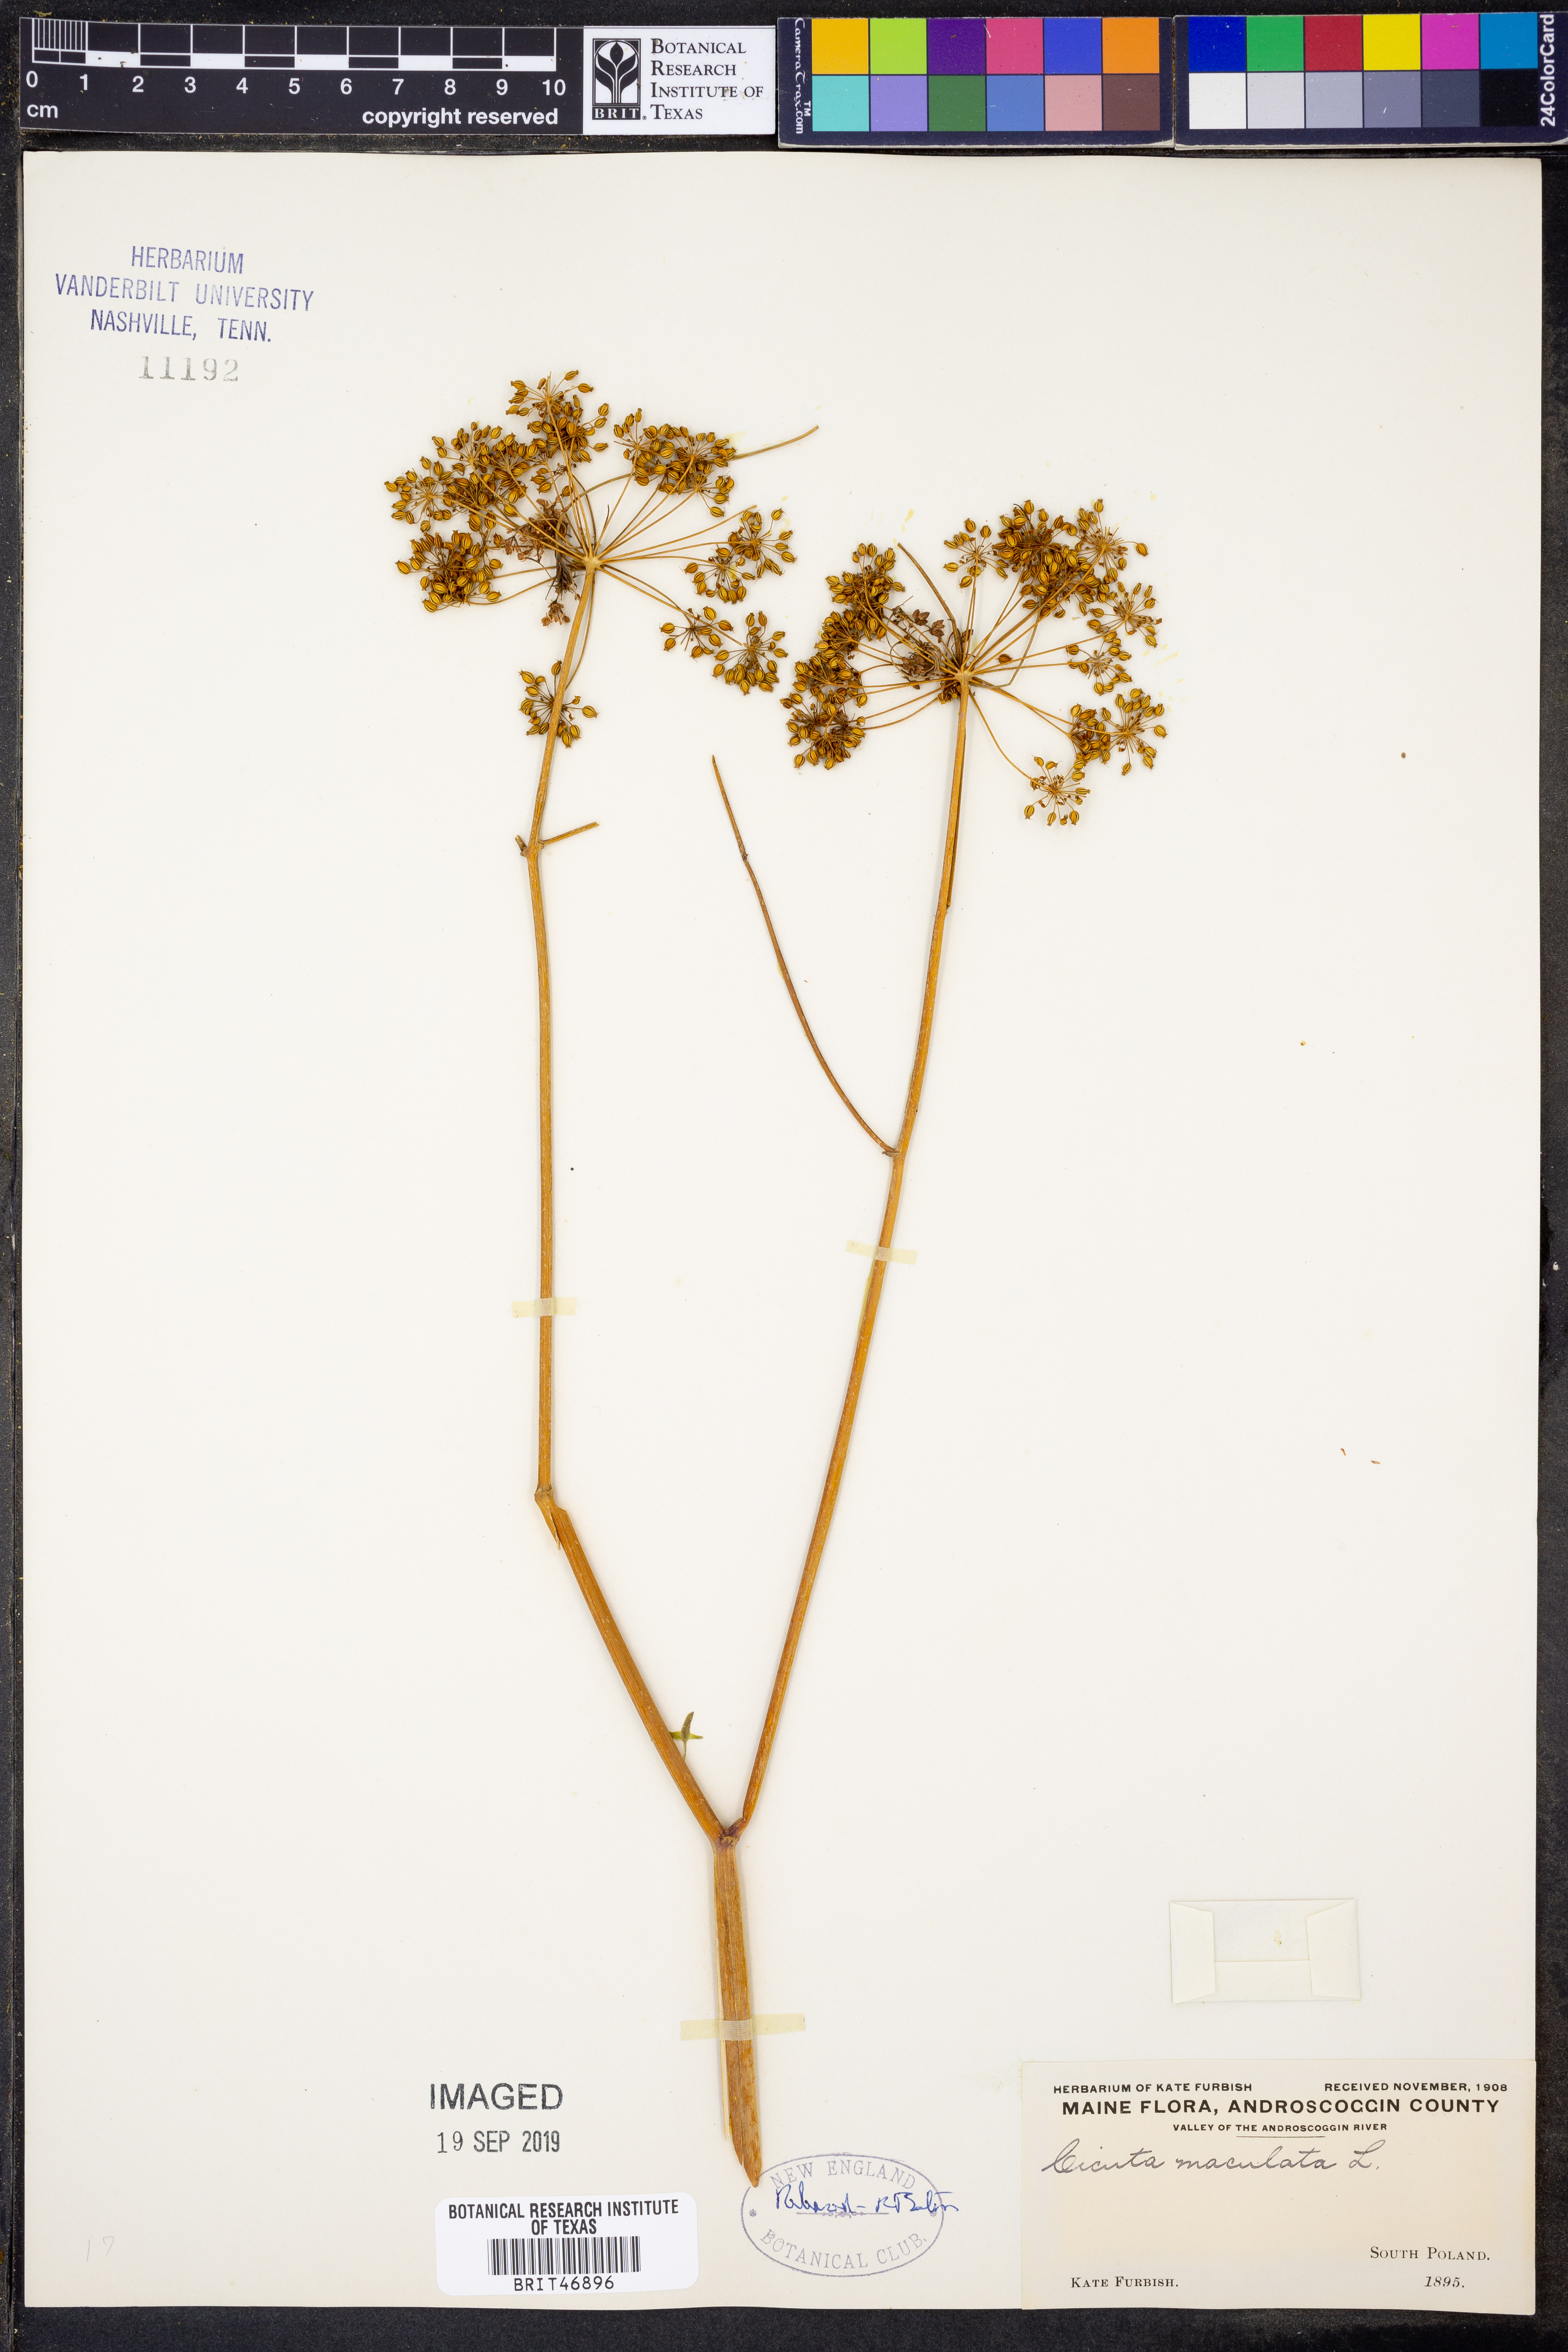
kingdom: Plantae
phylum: Tracheophyta
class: Magnoliopsida
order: Apiales
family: Apiaceae
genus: Cicuta
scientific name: Cicuta maculata
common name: Spotted cowbane
